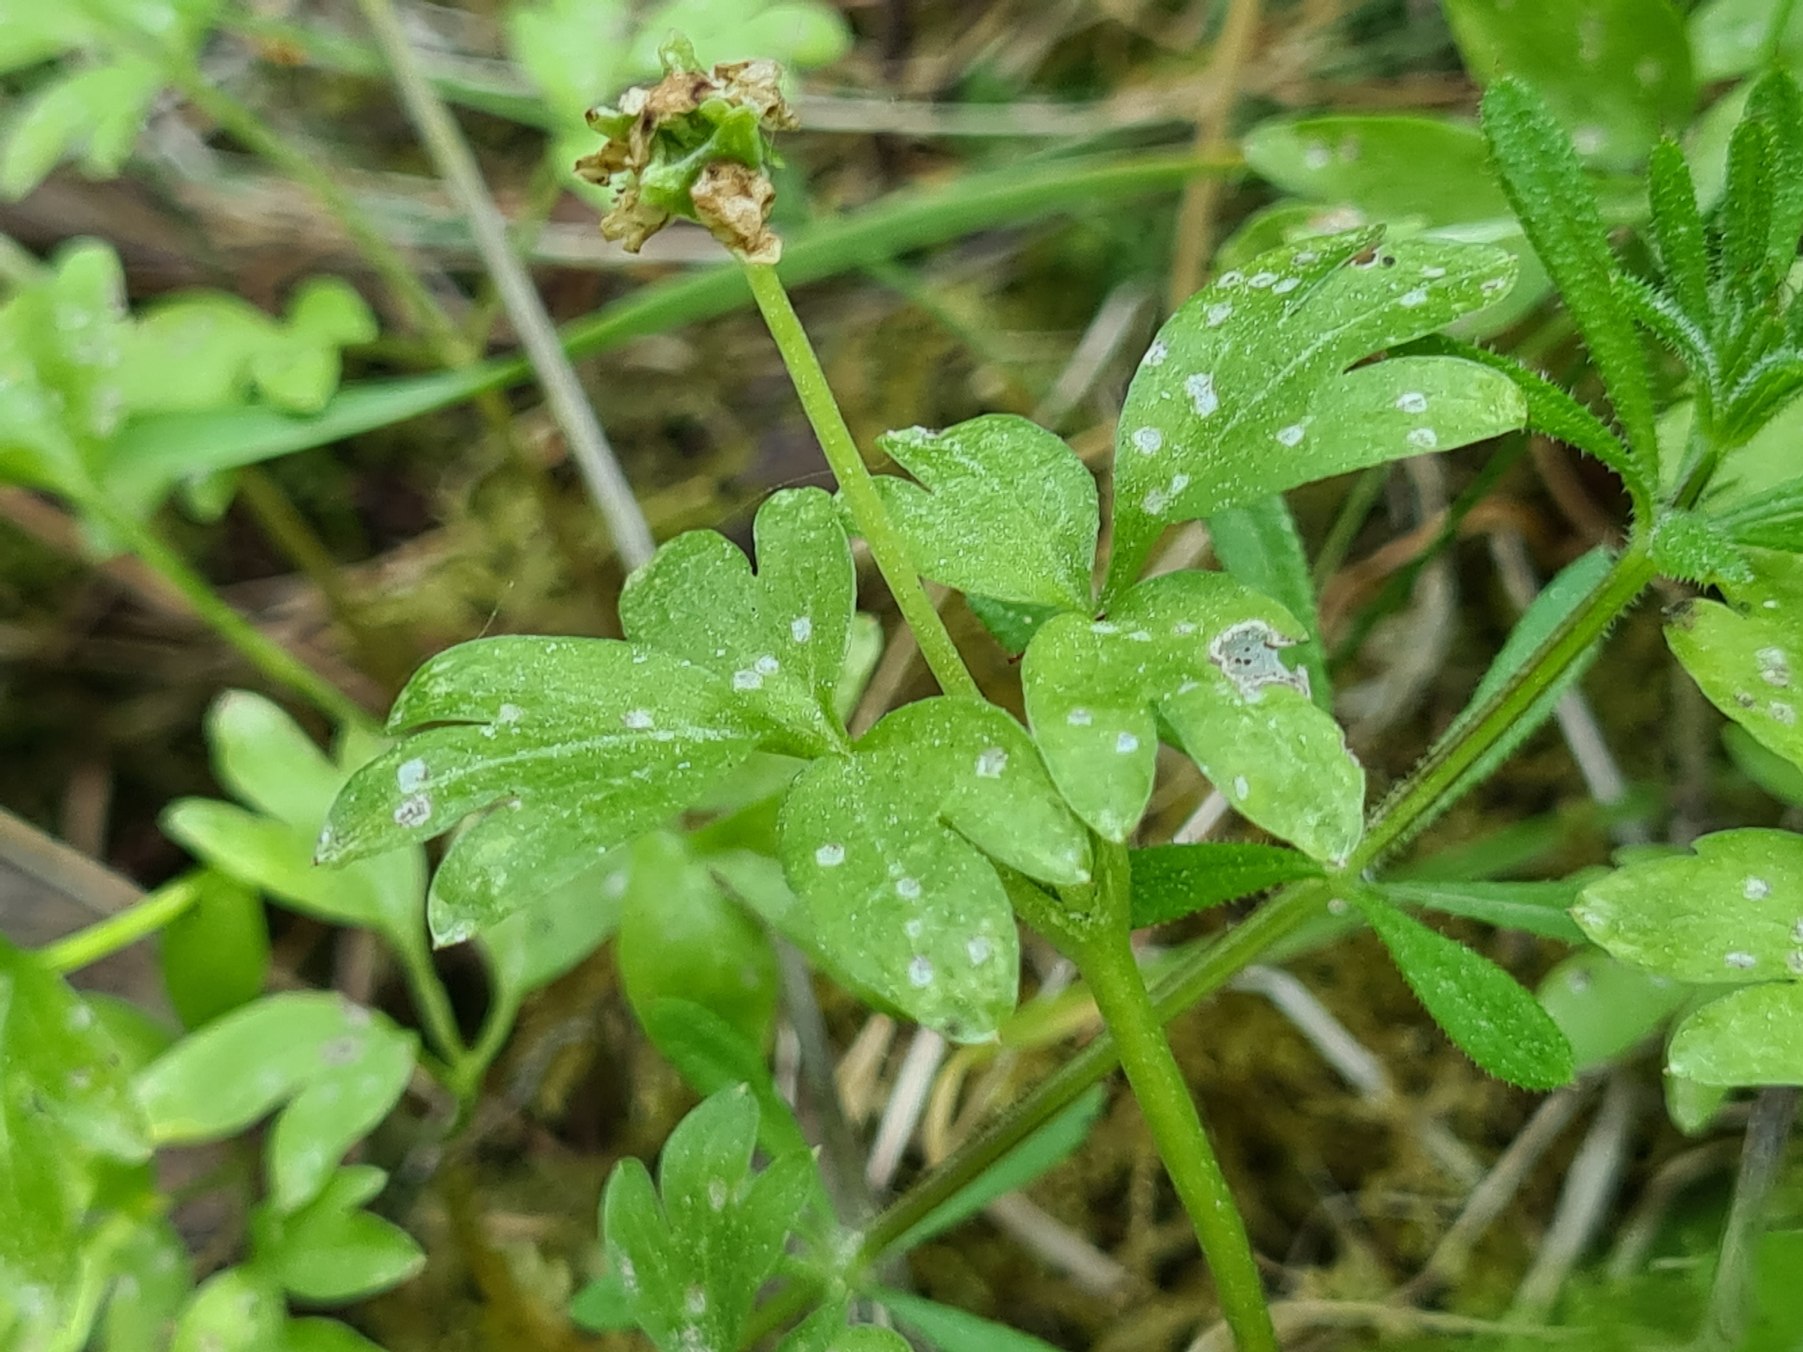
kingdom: Plantae
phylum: Tracheophyta
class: Magnoliopsida
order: Dipsacales
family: Viburnaceae
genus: Adoxa
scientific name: Adoxa moschatellina
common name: Desmerurt
